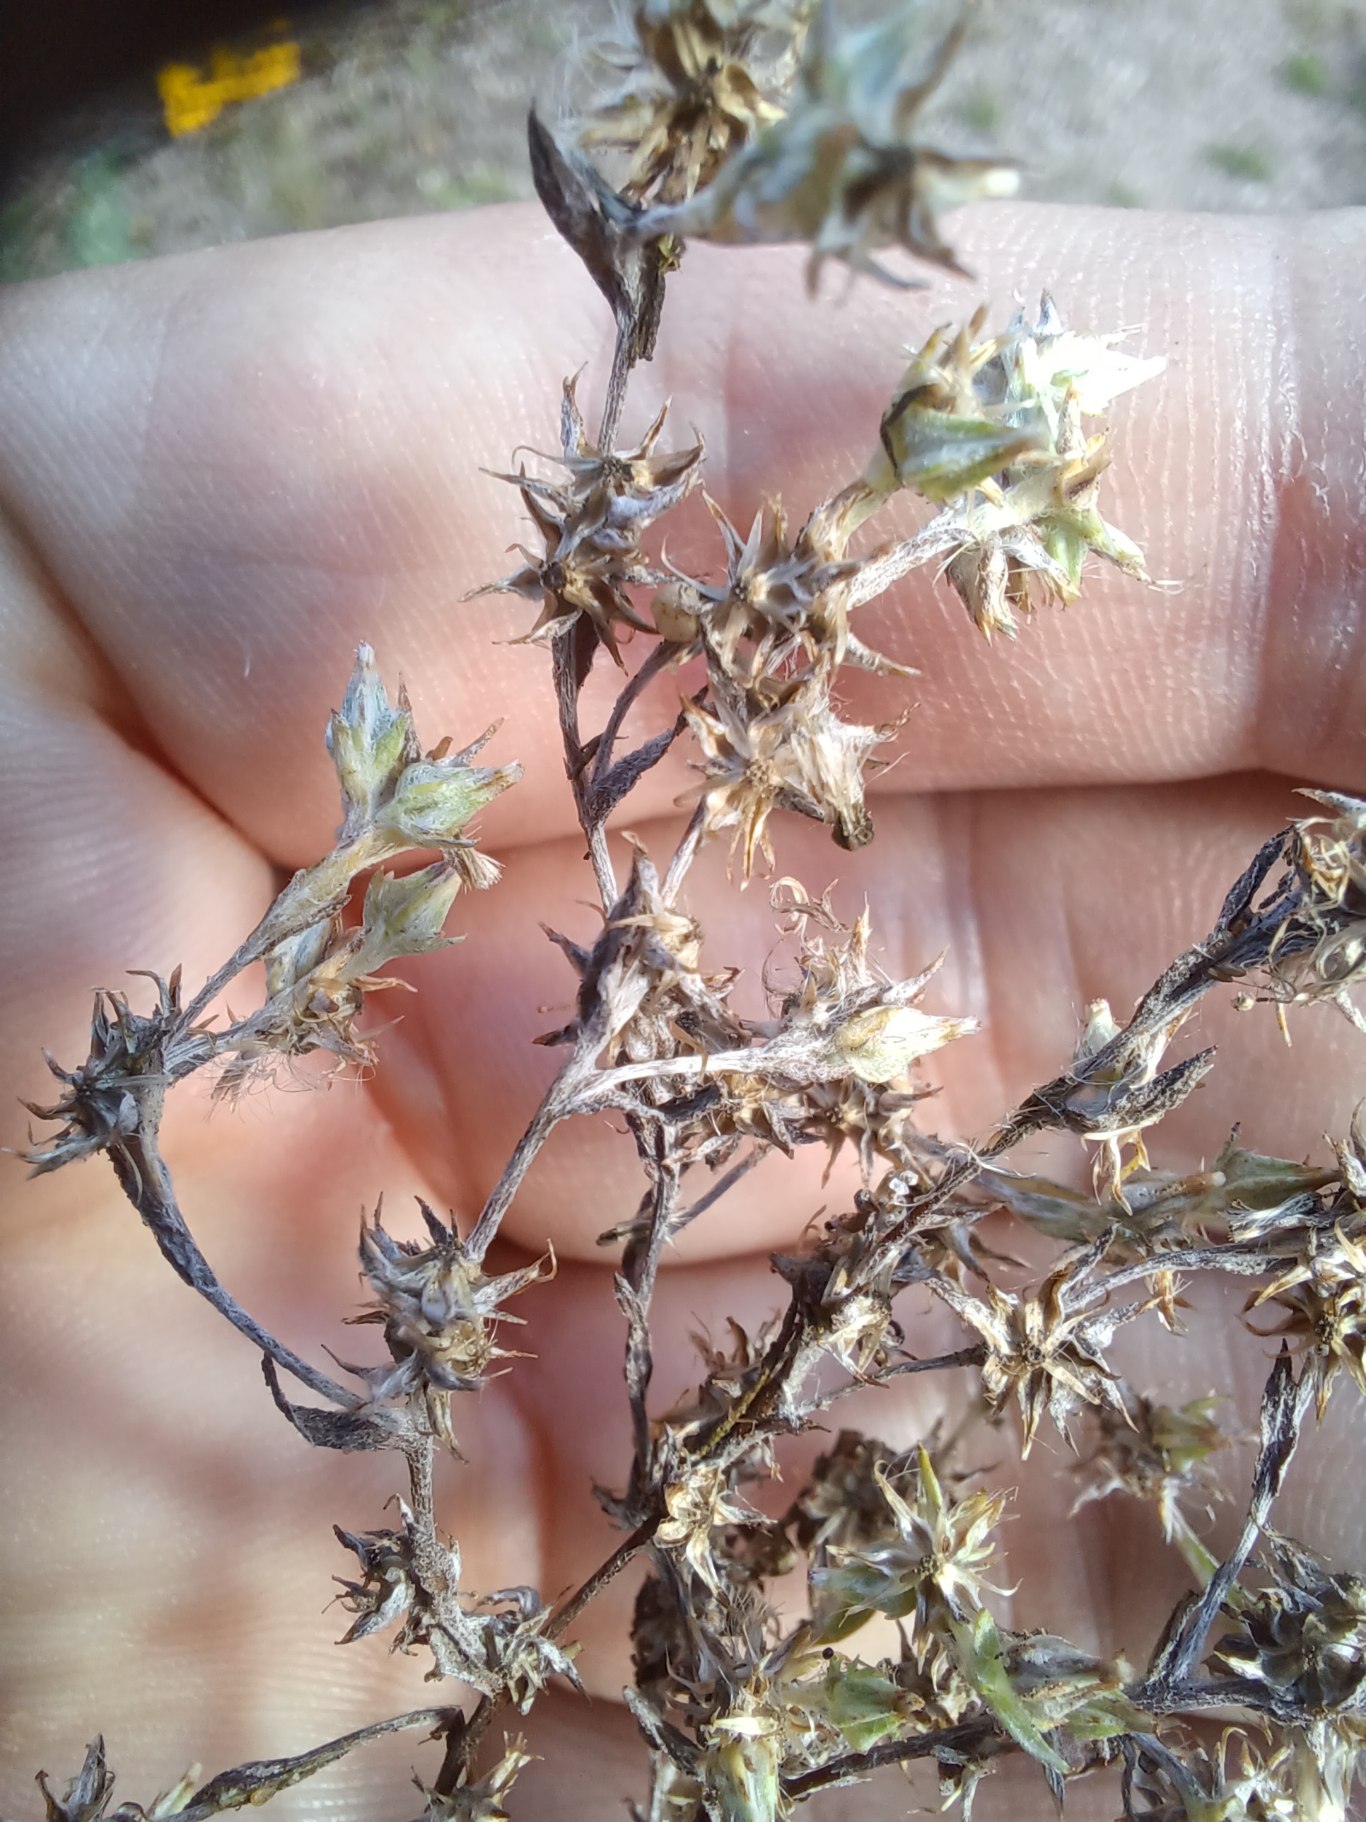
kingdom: Plantae
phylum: Tracheophyta
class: Magnoliopsida
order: Asterales
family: Asteraceae
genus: Logfia
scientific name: Logfia minima
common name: Liden museurt
